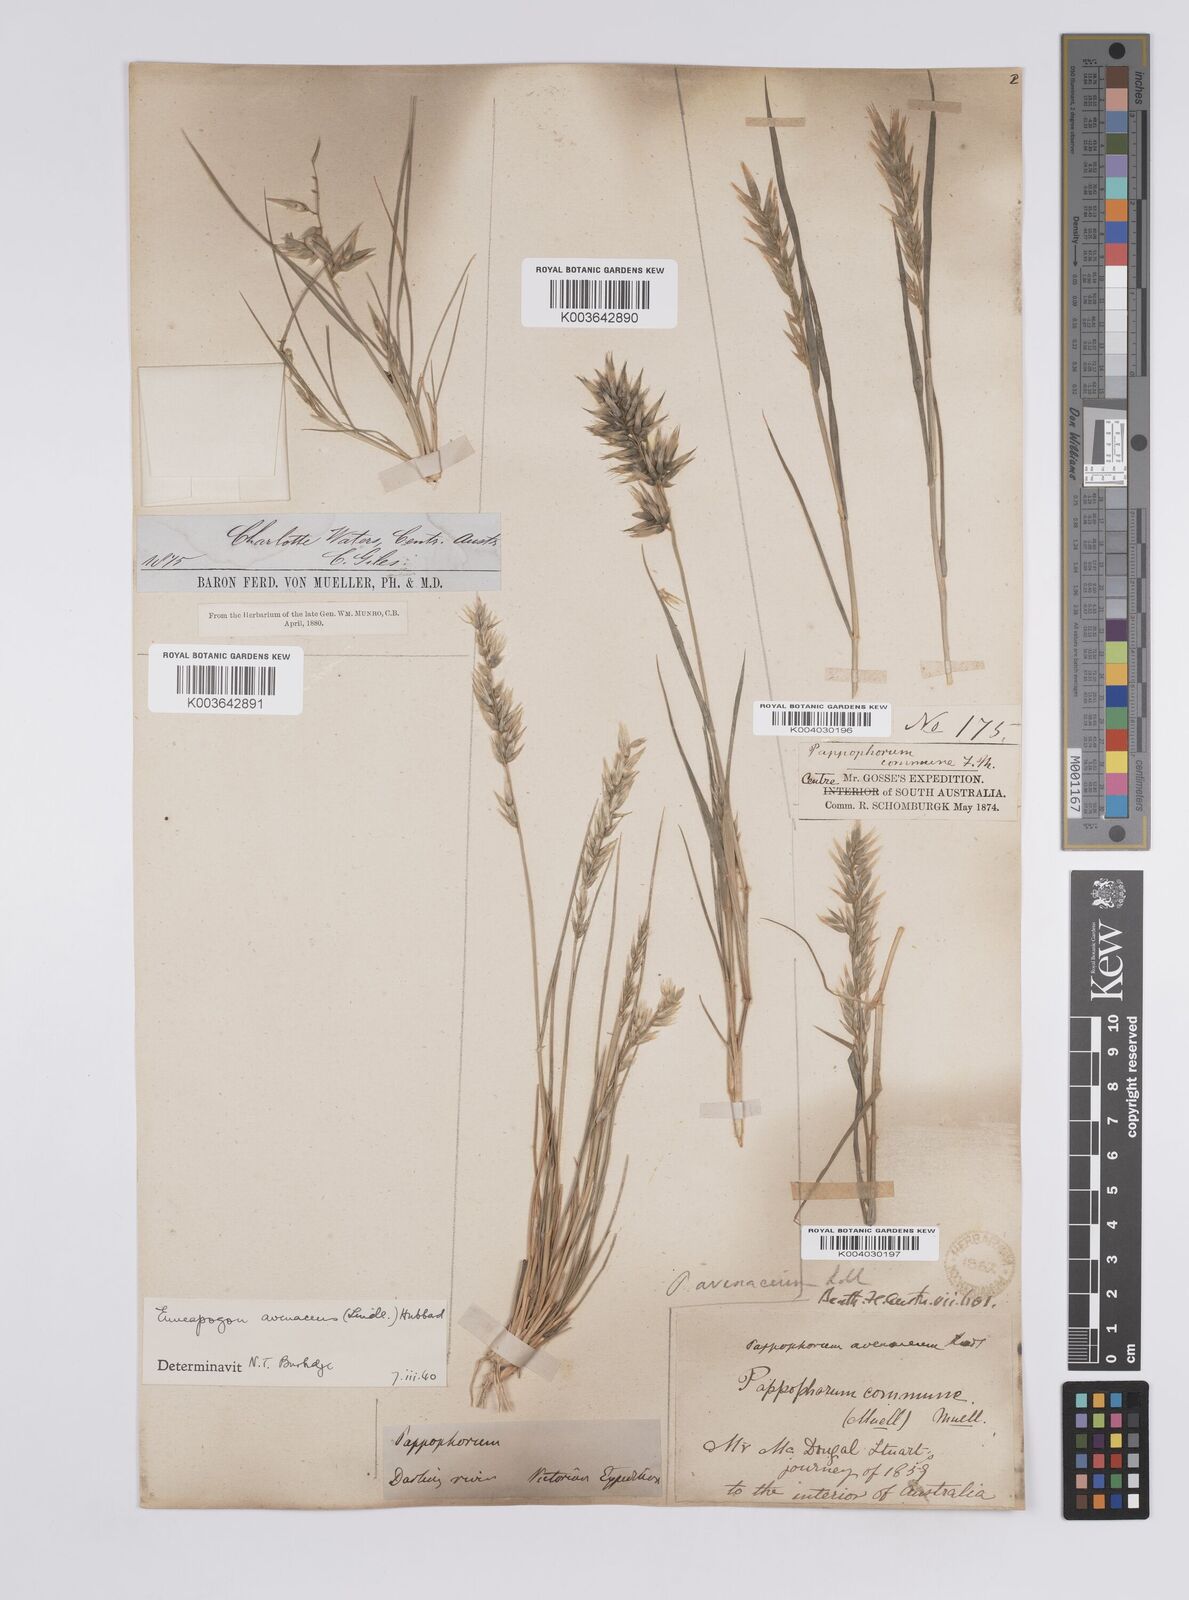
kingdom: Plantae
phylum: Tracheophyta
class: Liliopsida
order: Poales
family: Poaceae
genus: Enneapogon
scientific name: Enneapogon avenaceus
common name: Hairy oat grass
